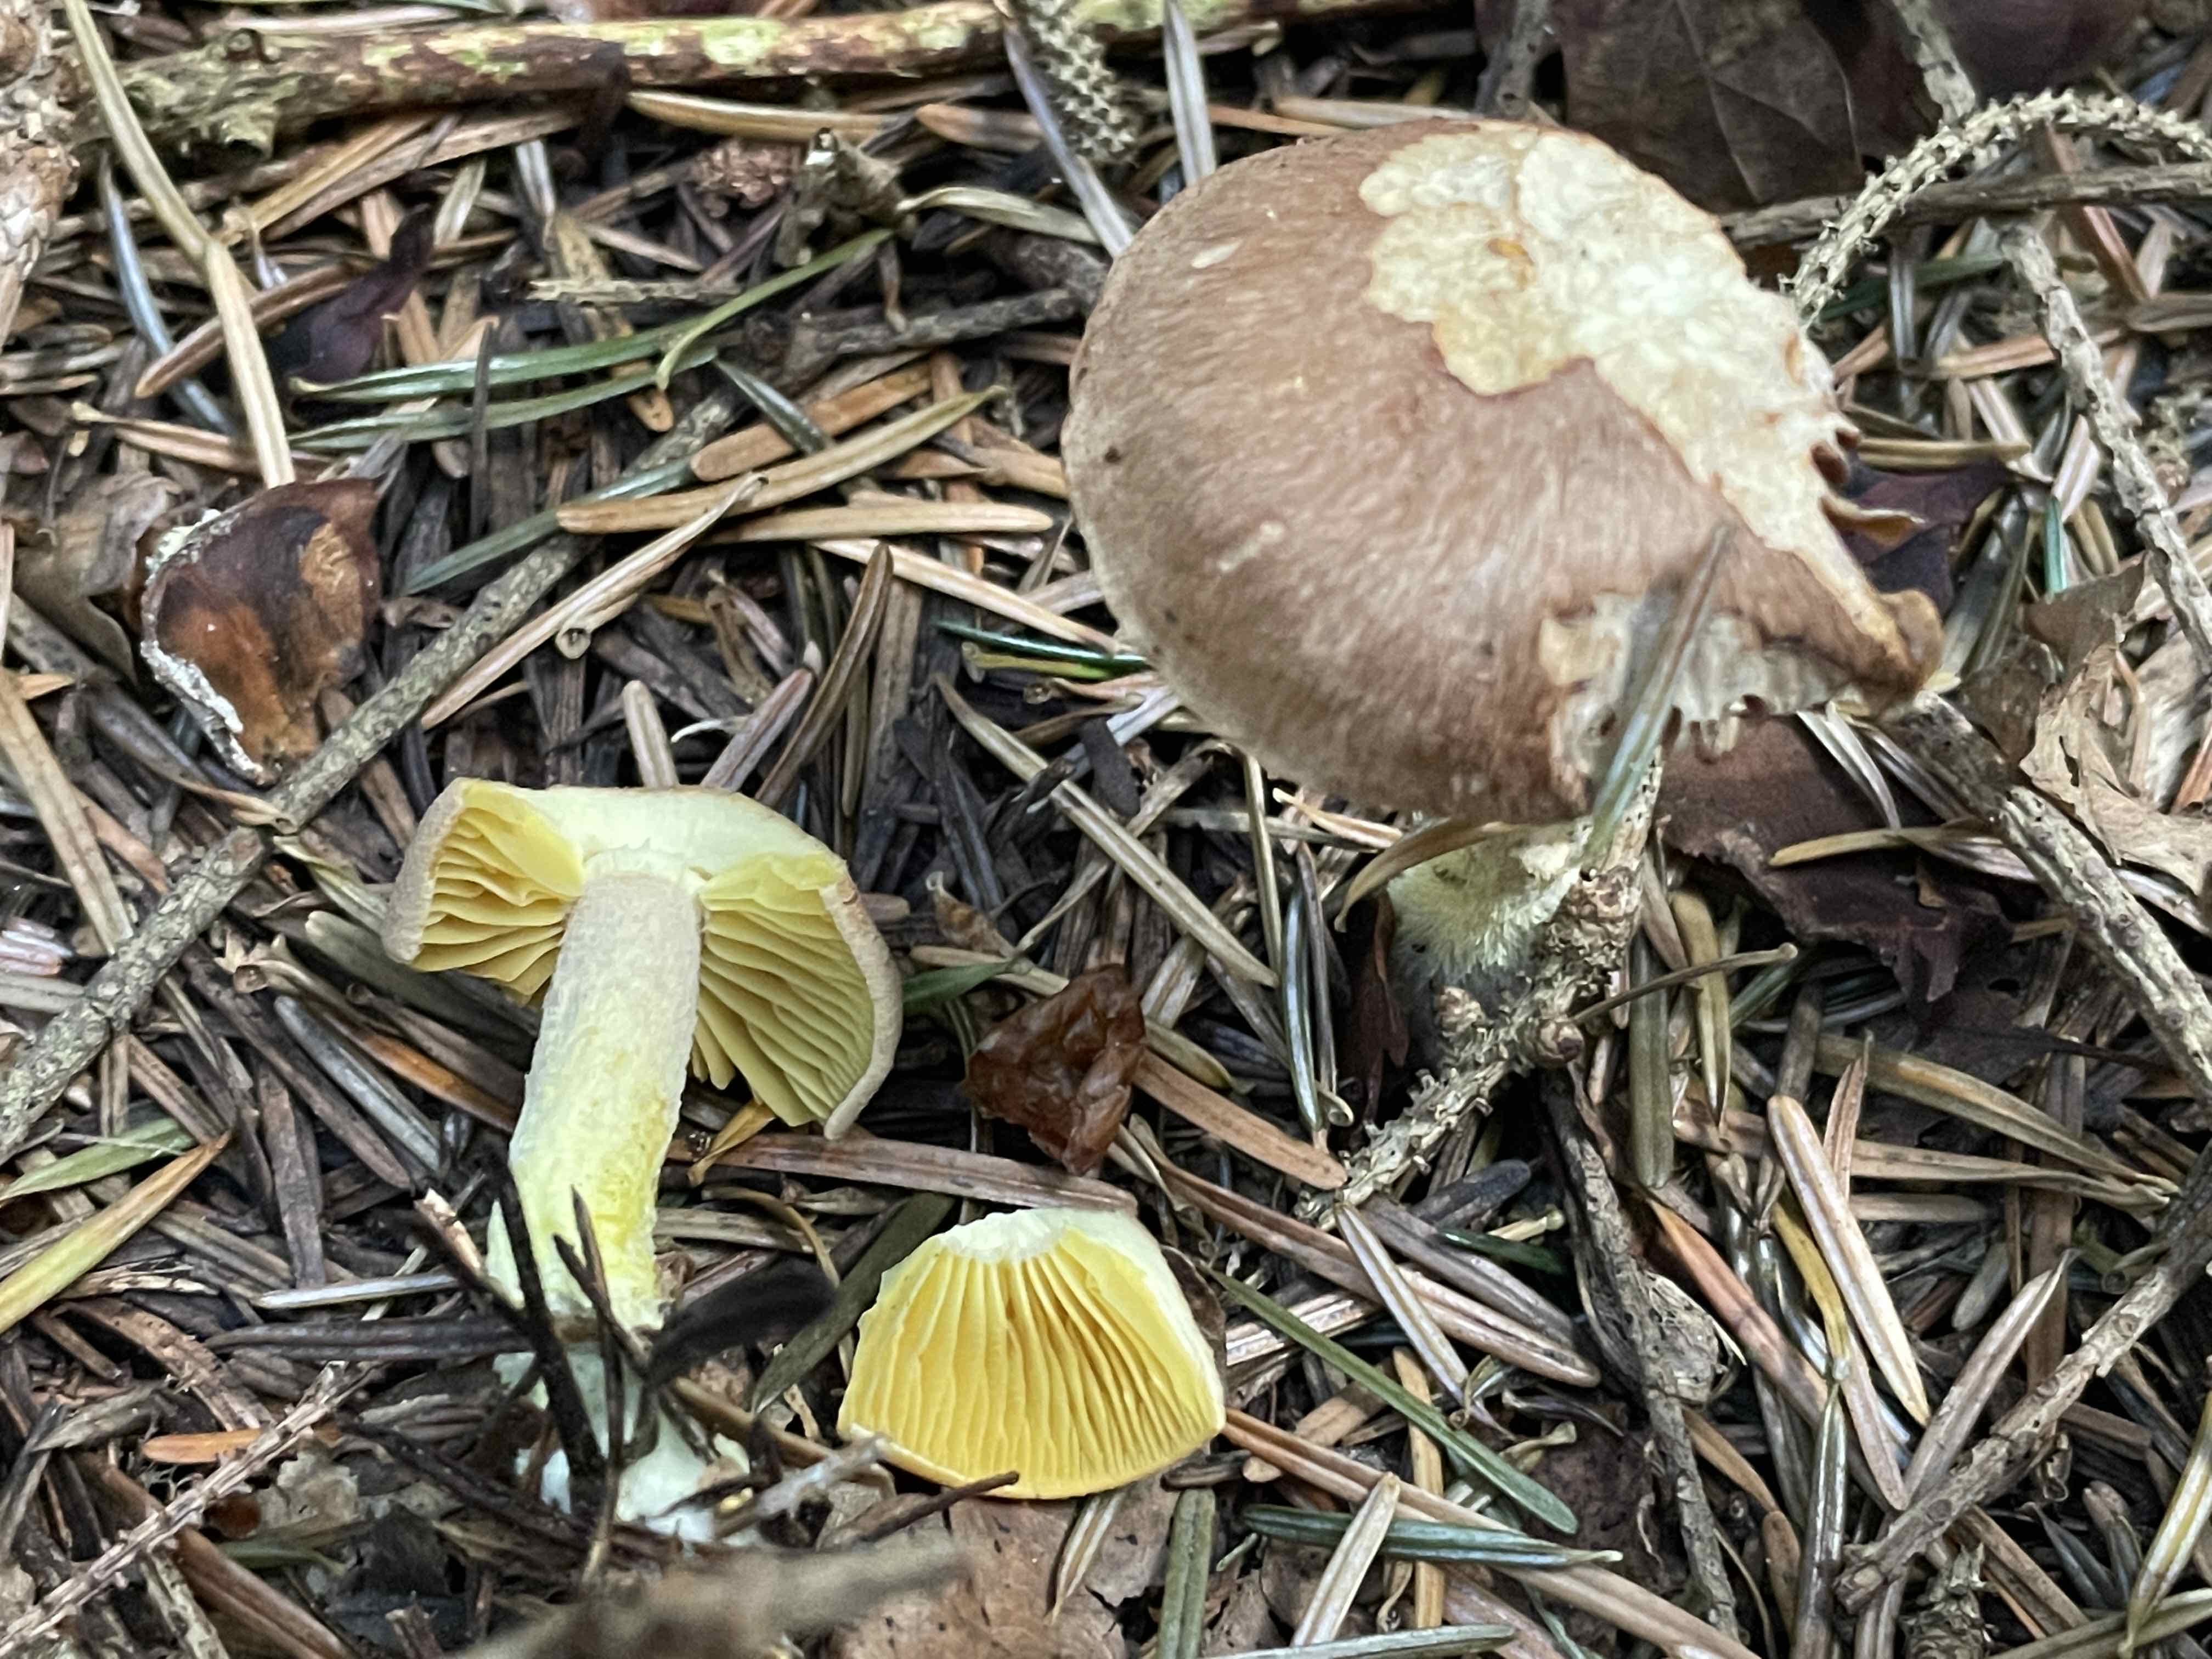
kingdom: Fungi
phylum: Basidiomycota
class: Agaricomycetes
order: Agaricales
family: Omphalotaceae
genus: Collybiopsis
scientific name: Collybiopsis peronata
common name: bestøvlet fladhat
